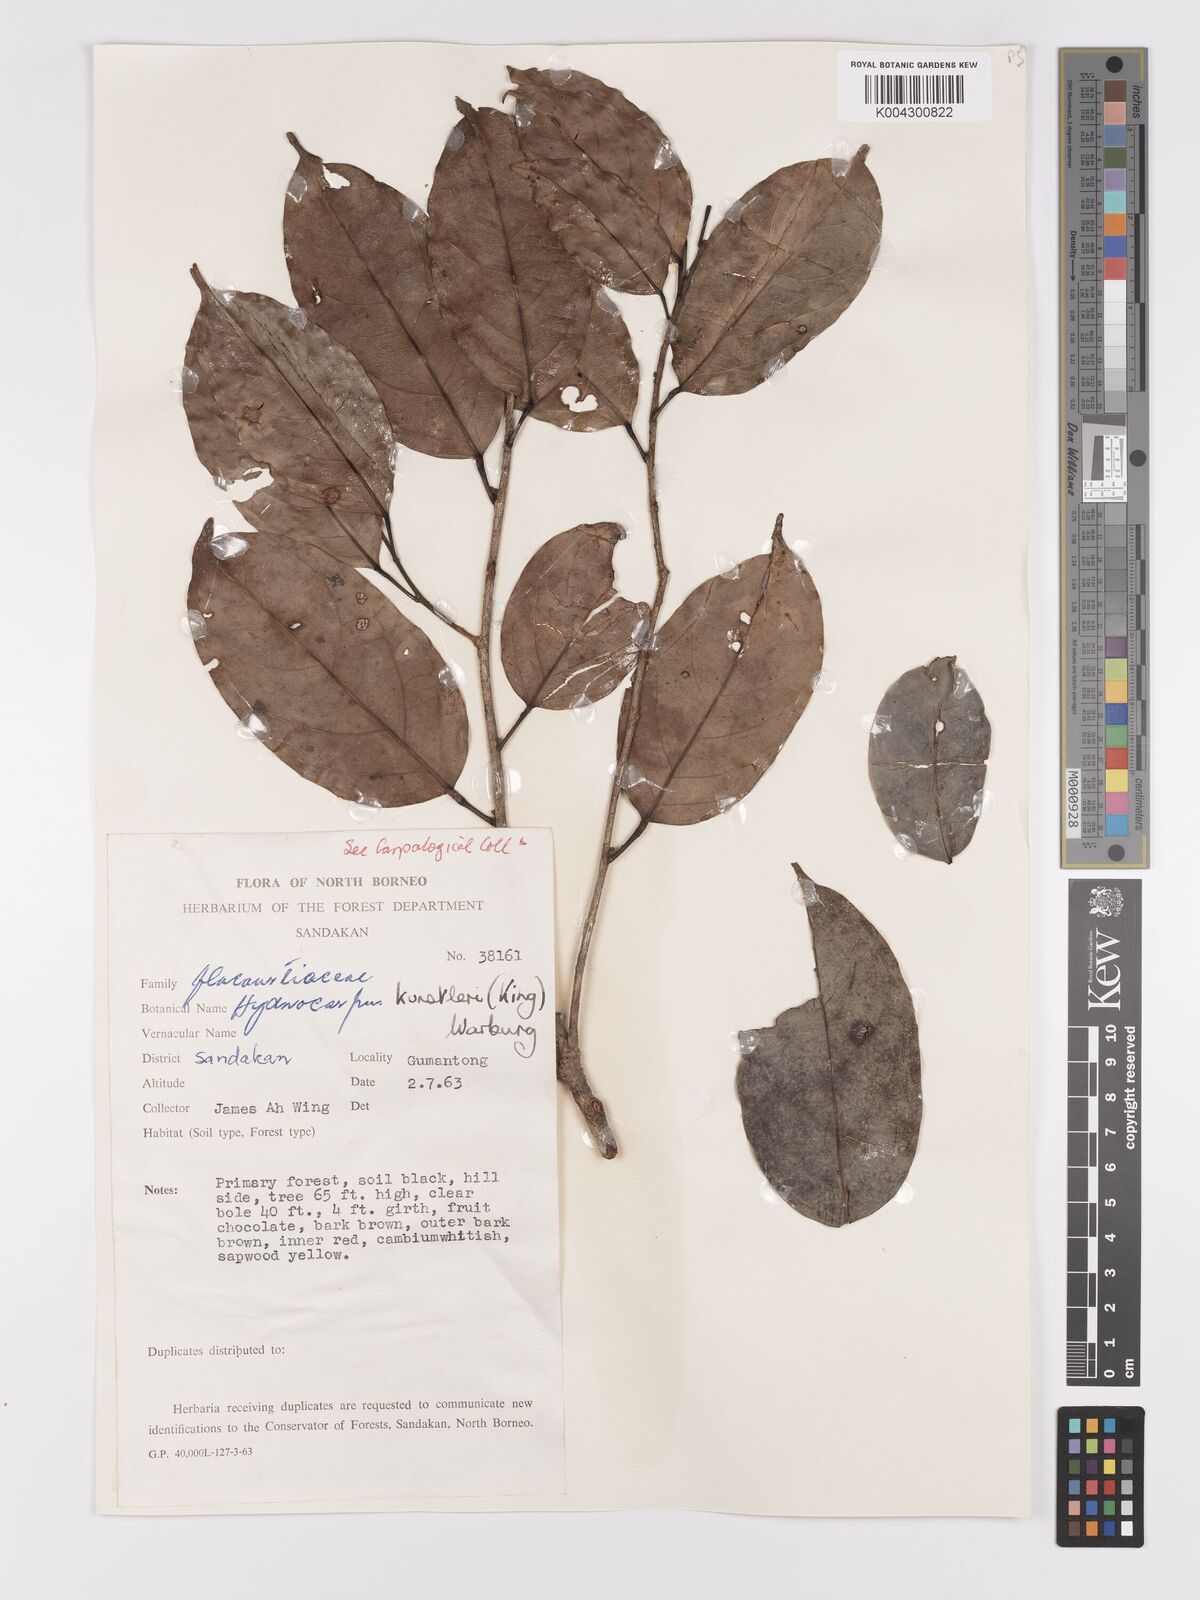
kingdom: Plantae
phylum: Tracheophyta
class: Magnoliopsida
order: Malpighiales
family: Achariaceae
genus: Hydnocarpus
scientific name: Hydnocarpus kunstleri
